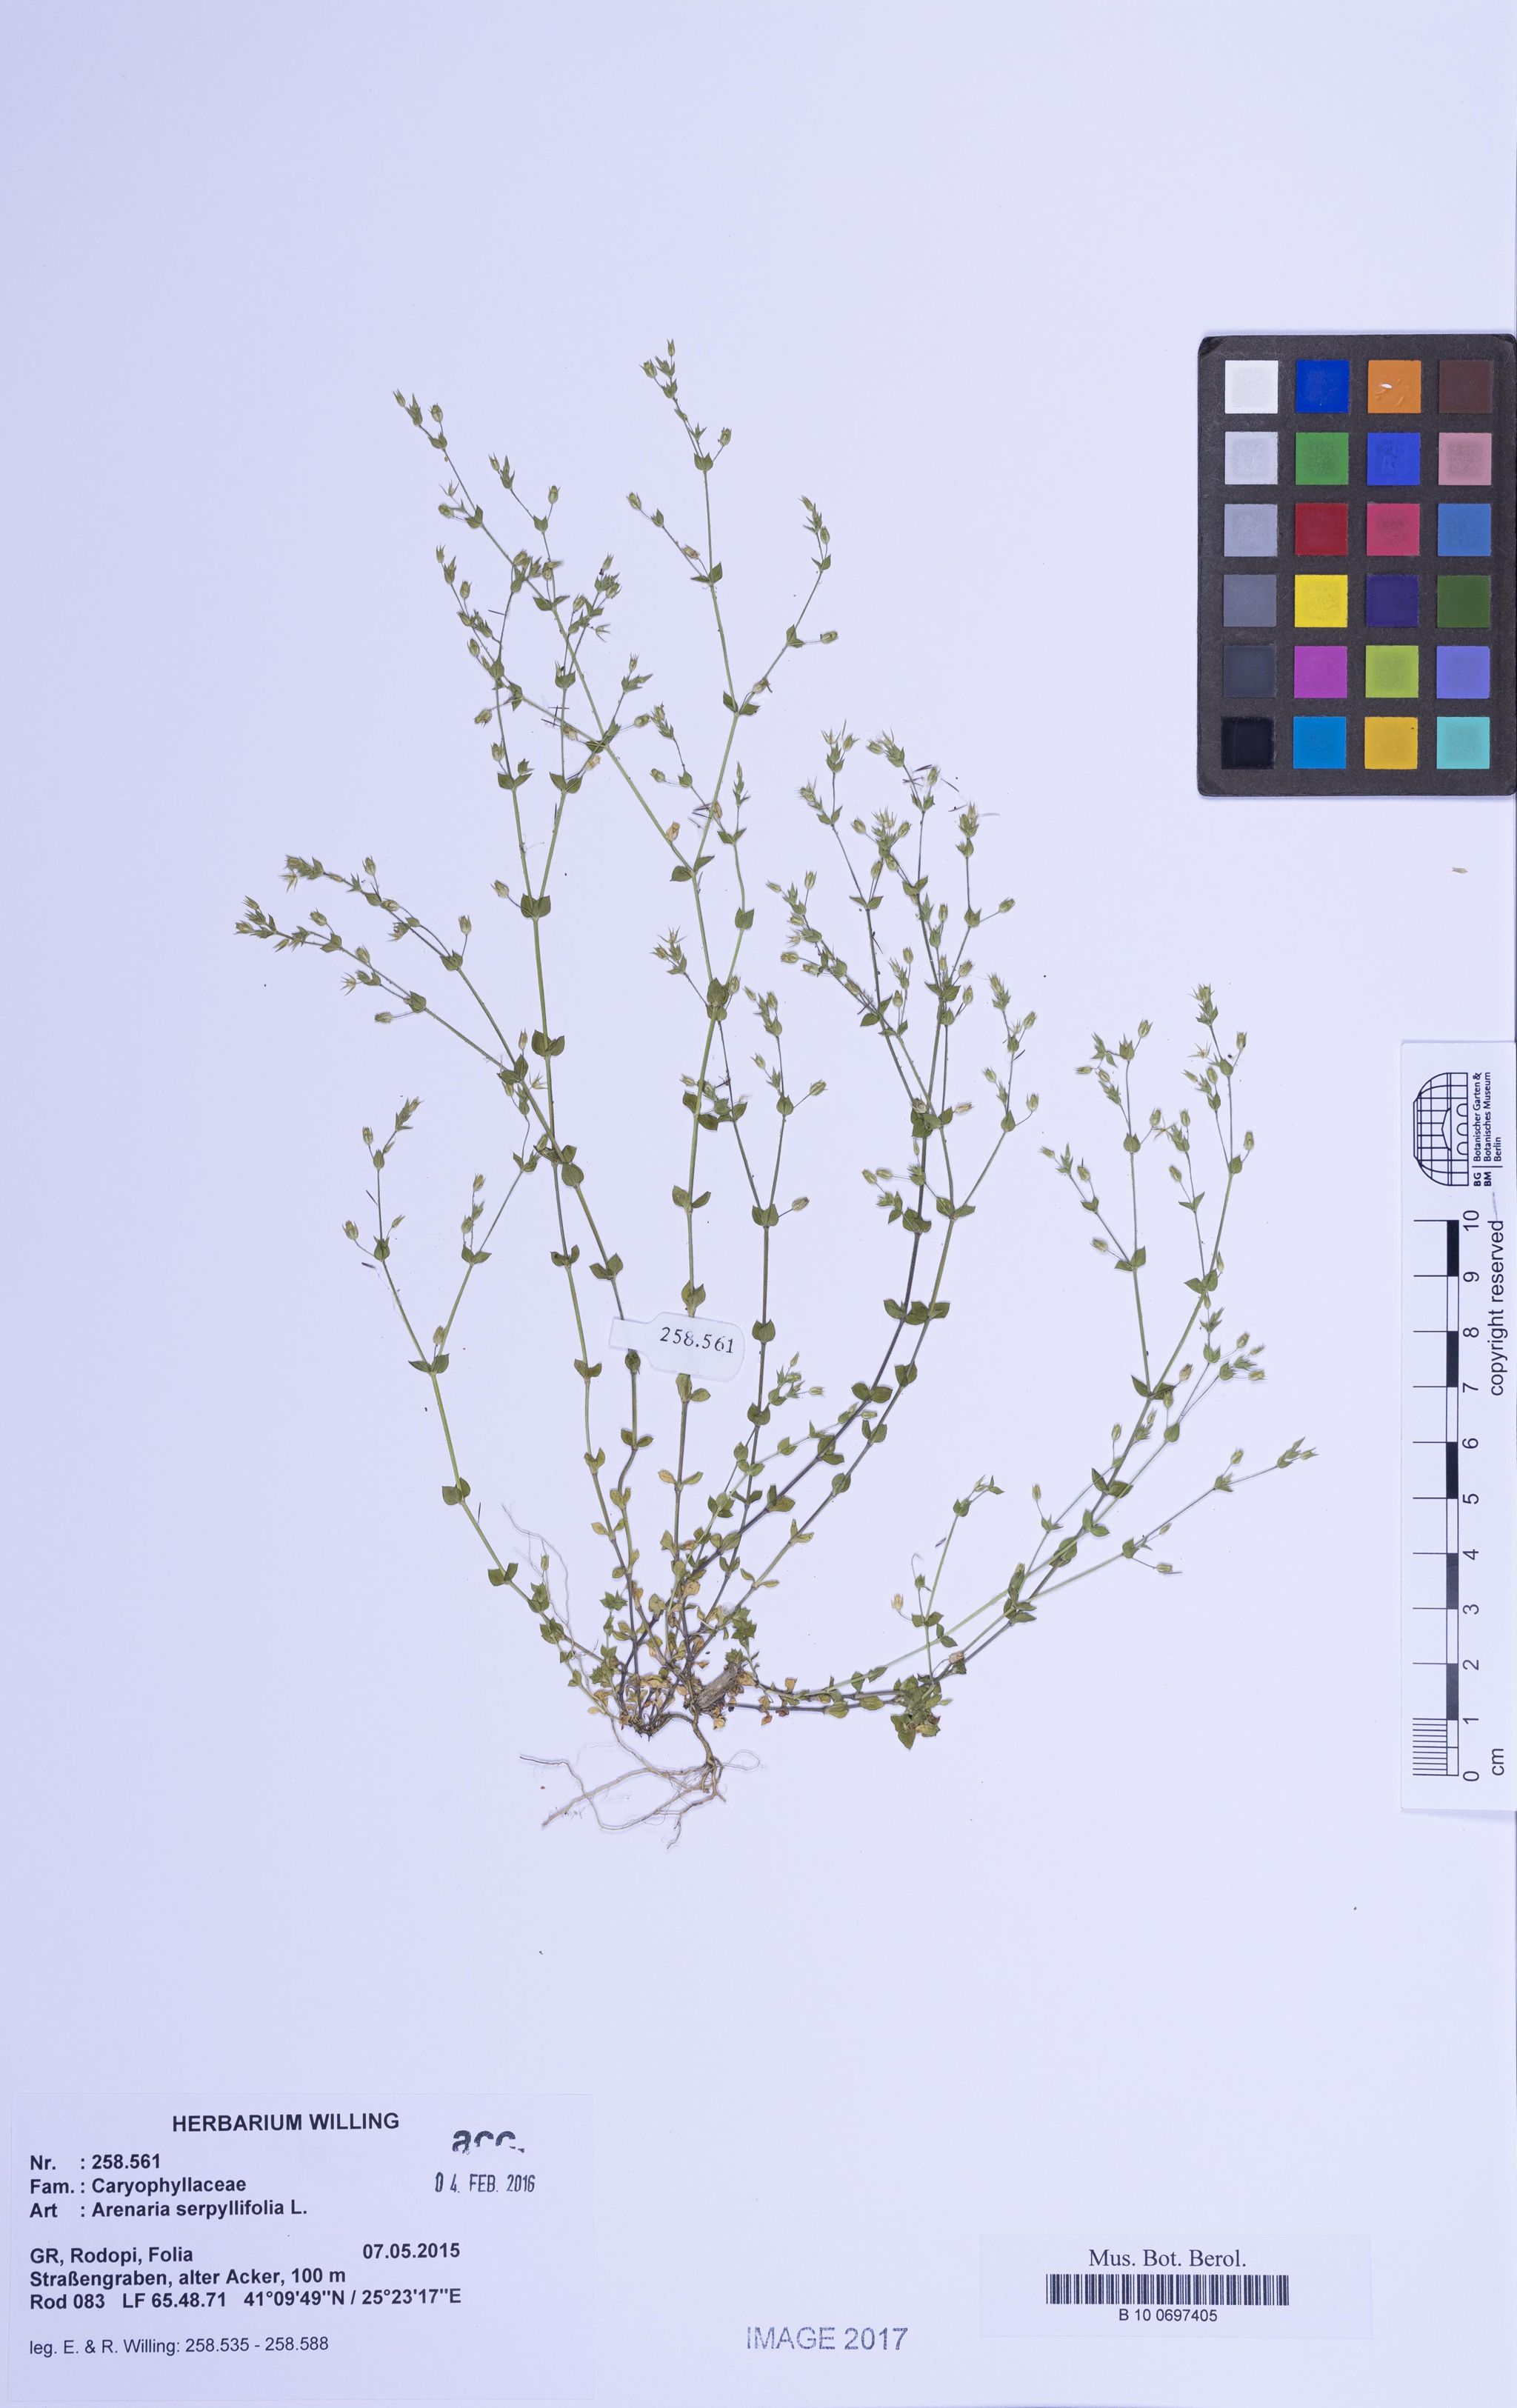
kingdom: Plantae
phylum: Tracheophyta
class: Magnoliopsida
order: Caryophyllales
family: Caryophyllaceae
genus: Arenaria
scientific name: Arenaria serpyllifolia
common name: Thyme-leaved sandwort
